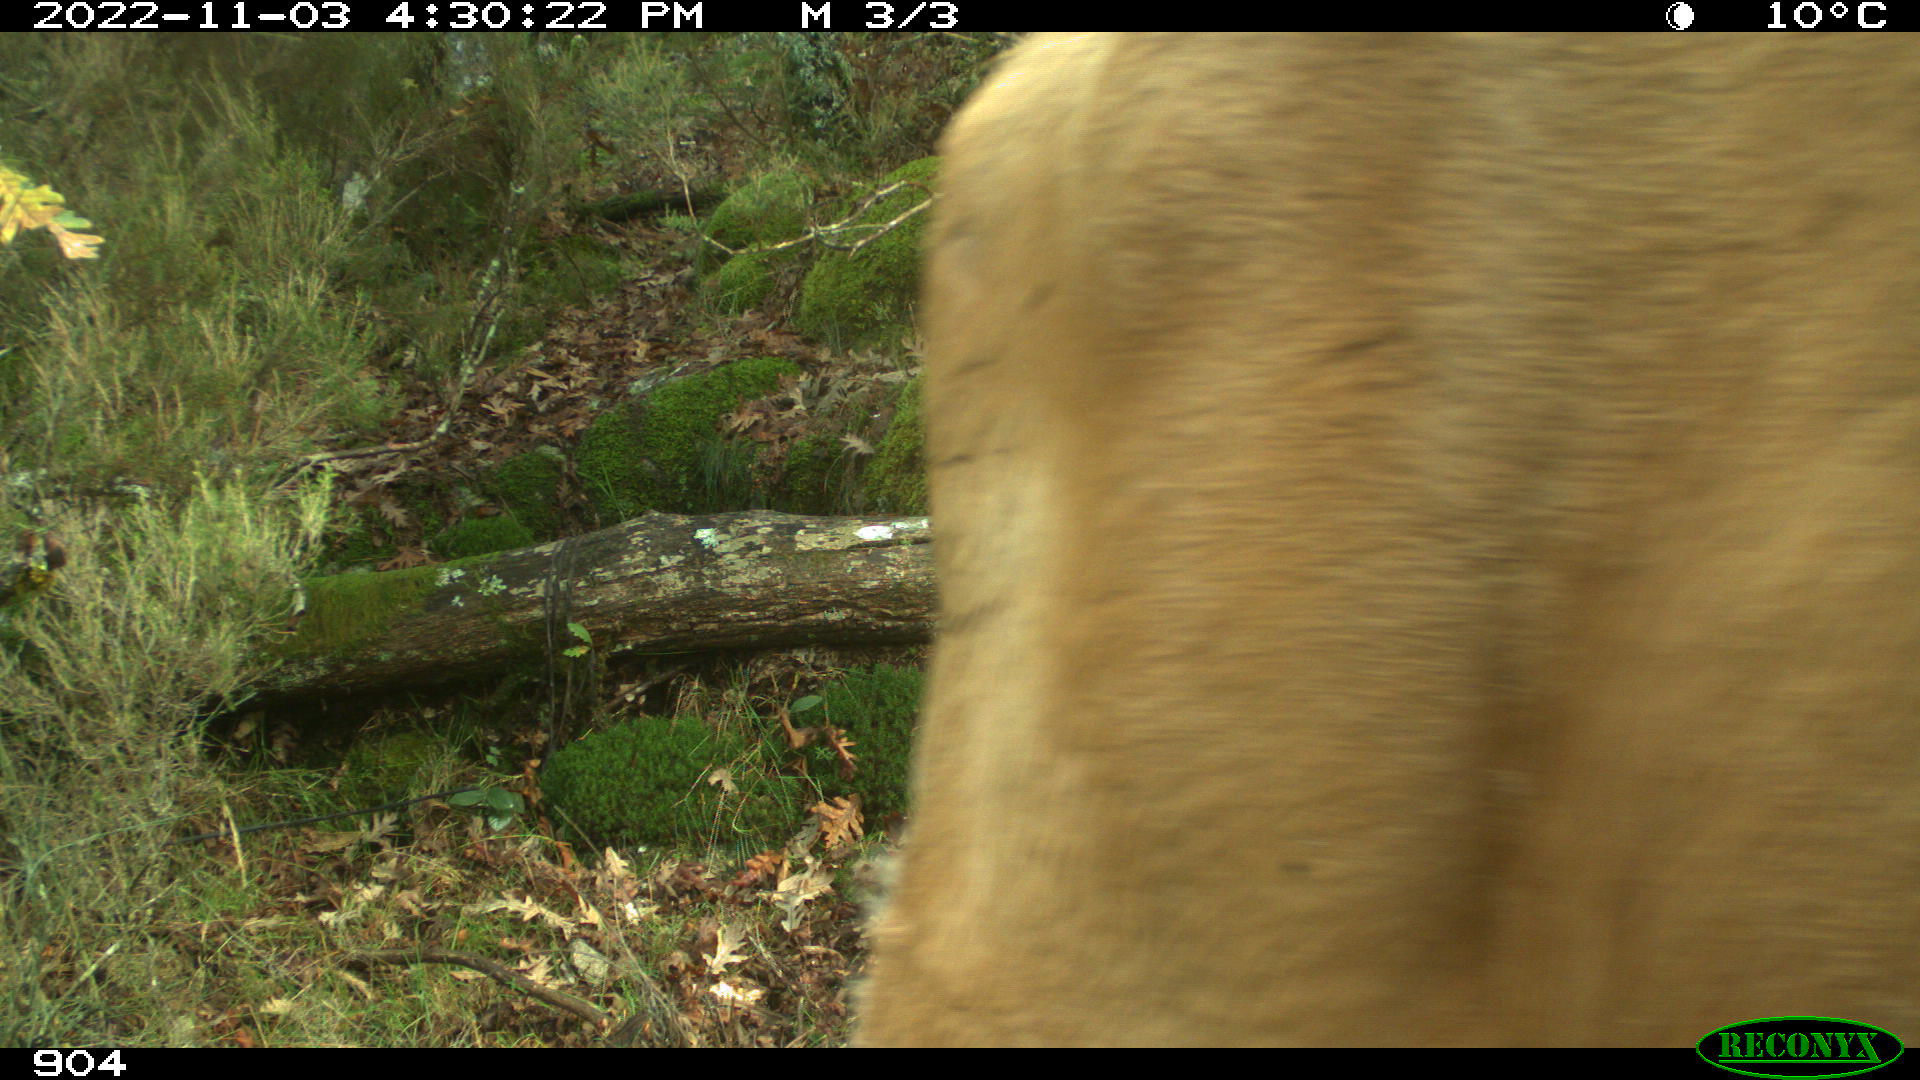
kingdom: Animalia
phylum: Chordata
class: Mammalia
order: Artiodactyla
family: Bovidae
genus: Bos
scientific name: Bos taurus
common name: Domesticated cattle
